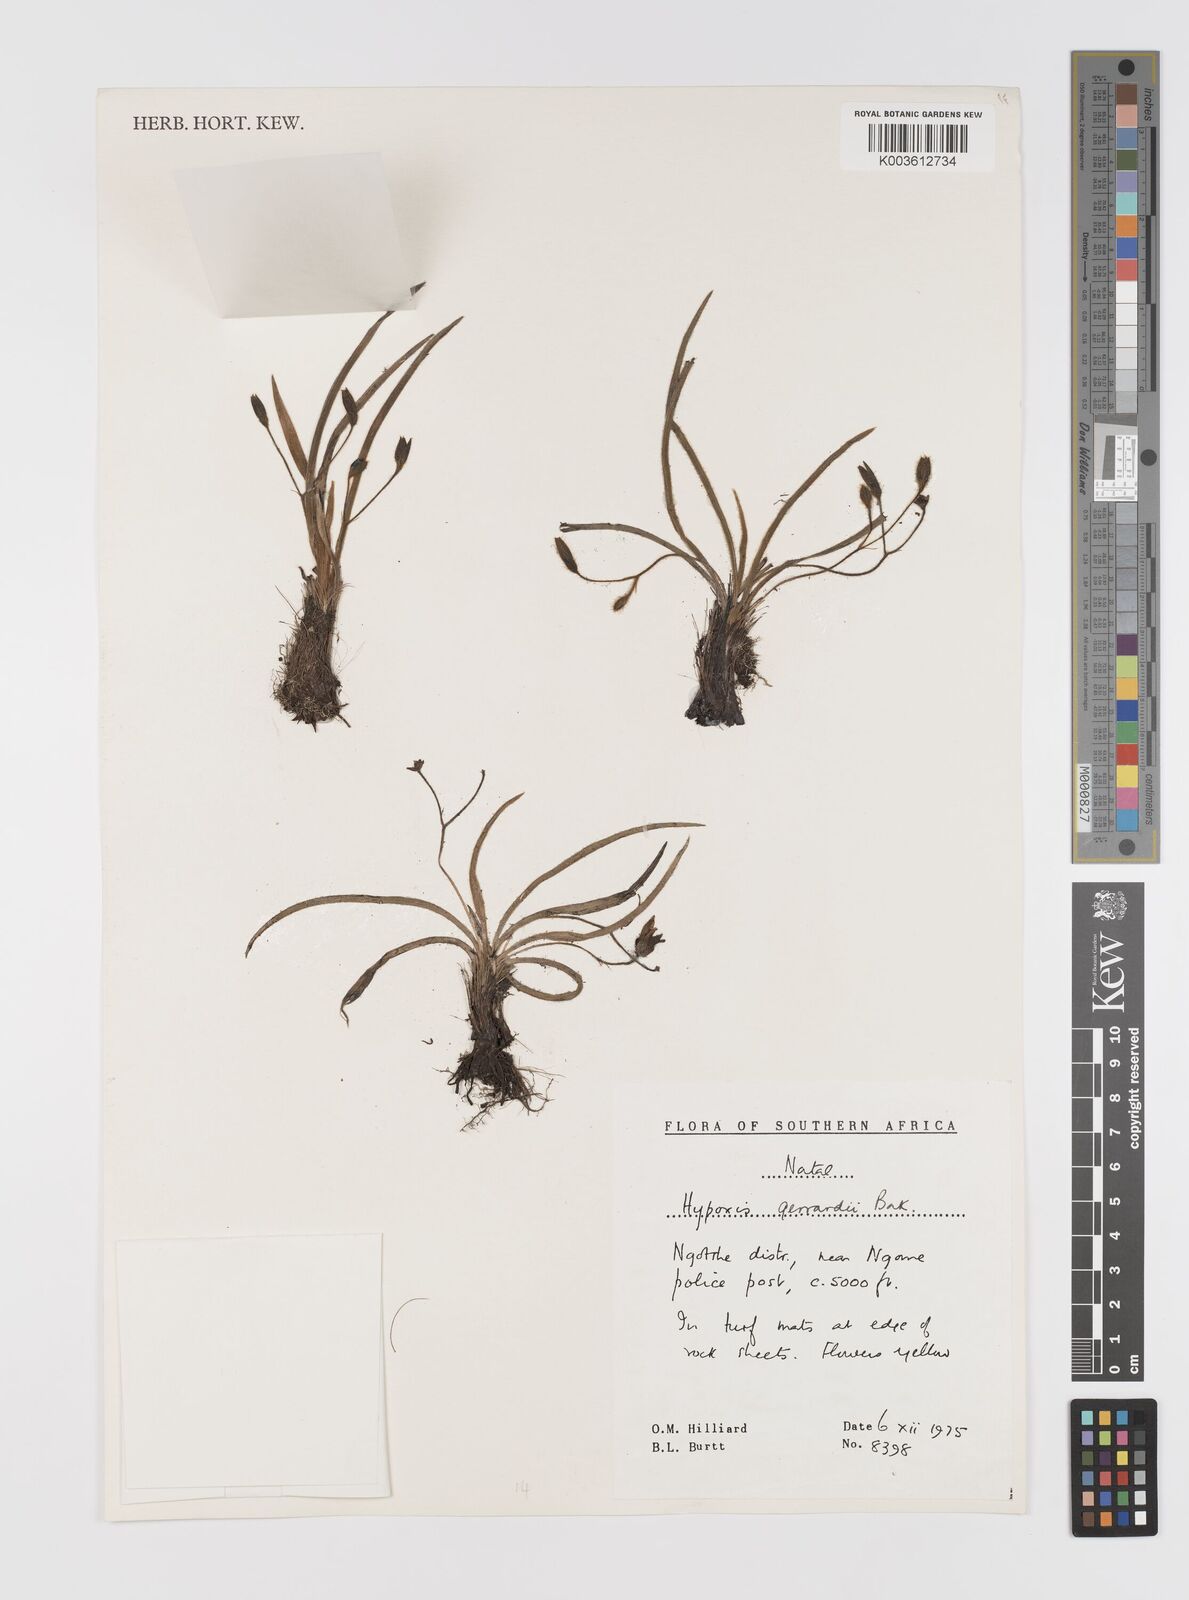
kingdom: Plantae
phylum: Tracheophyta
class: Liliopsida
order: Asparagales
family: Hypoxidaceae
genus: Hypoxis
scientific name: Hypoxis gerrardii
